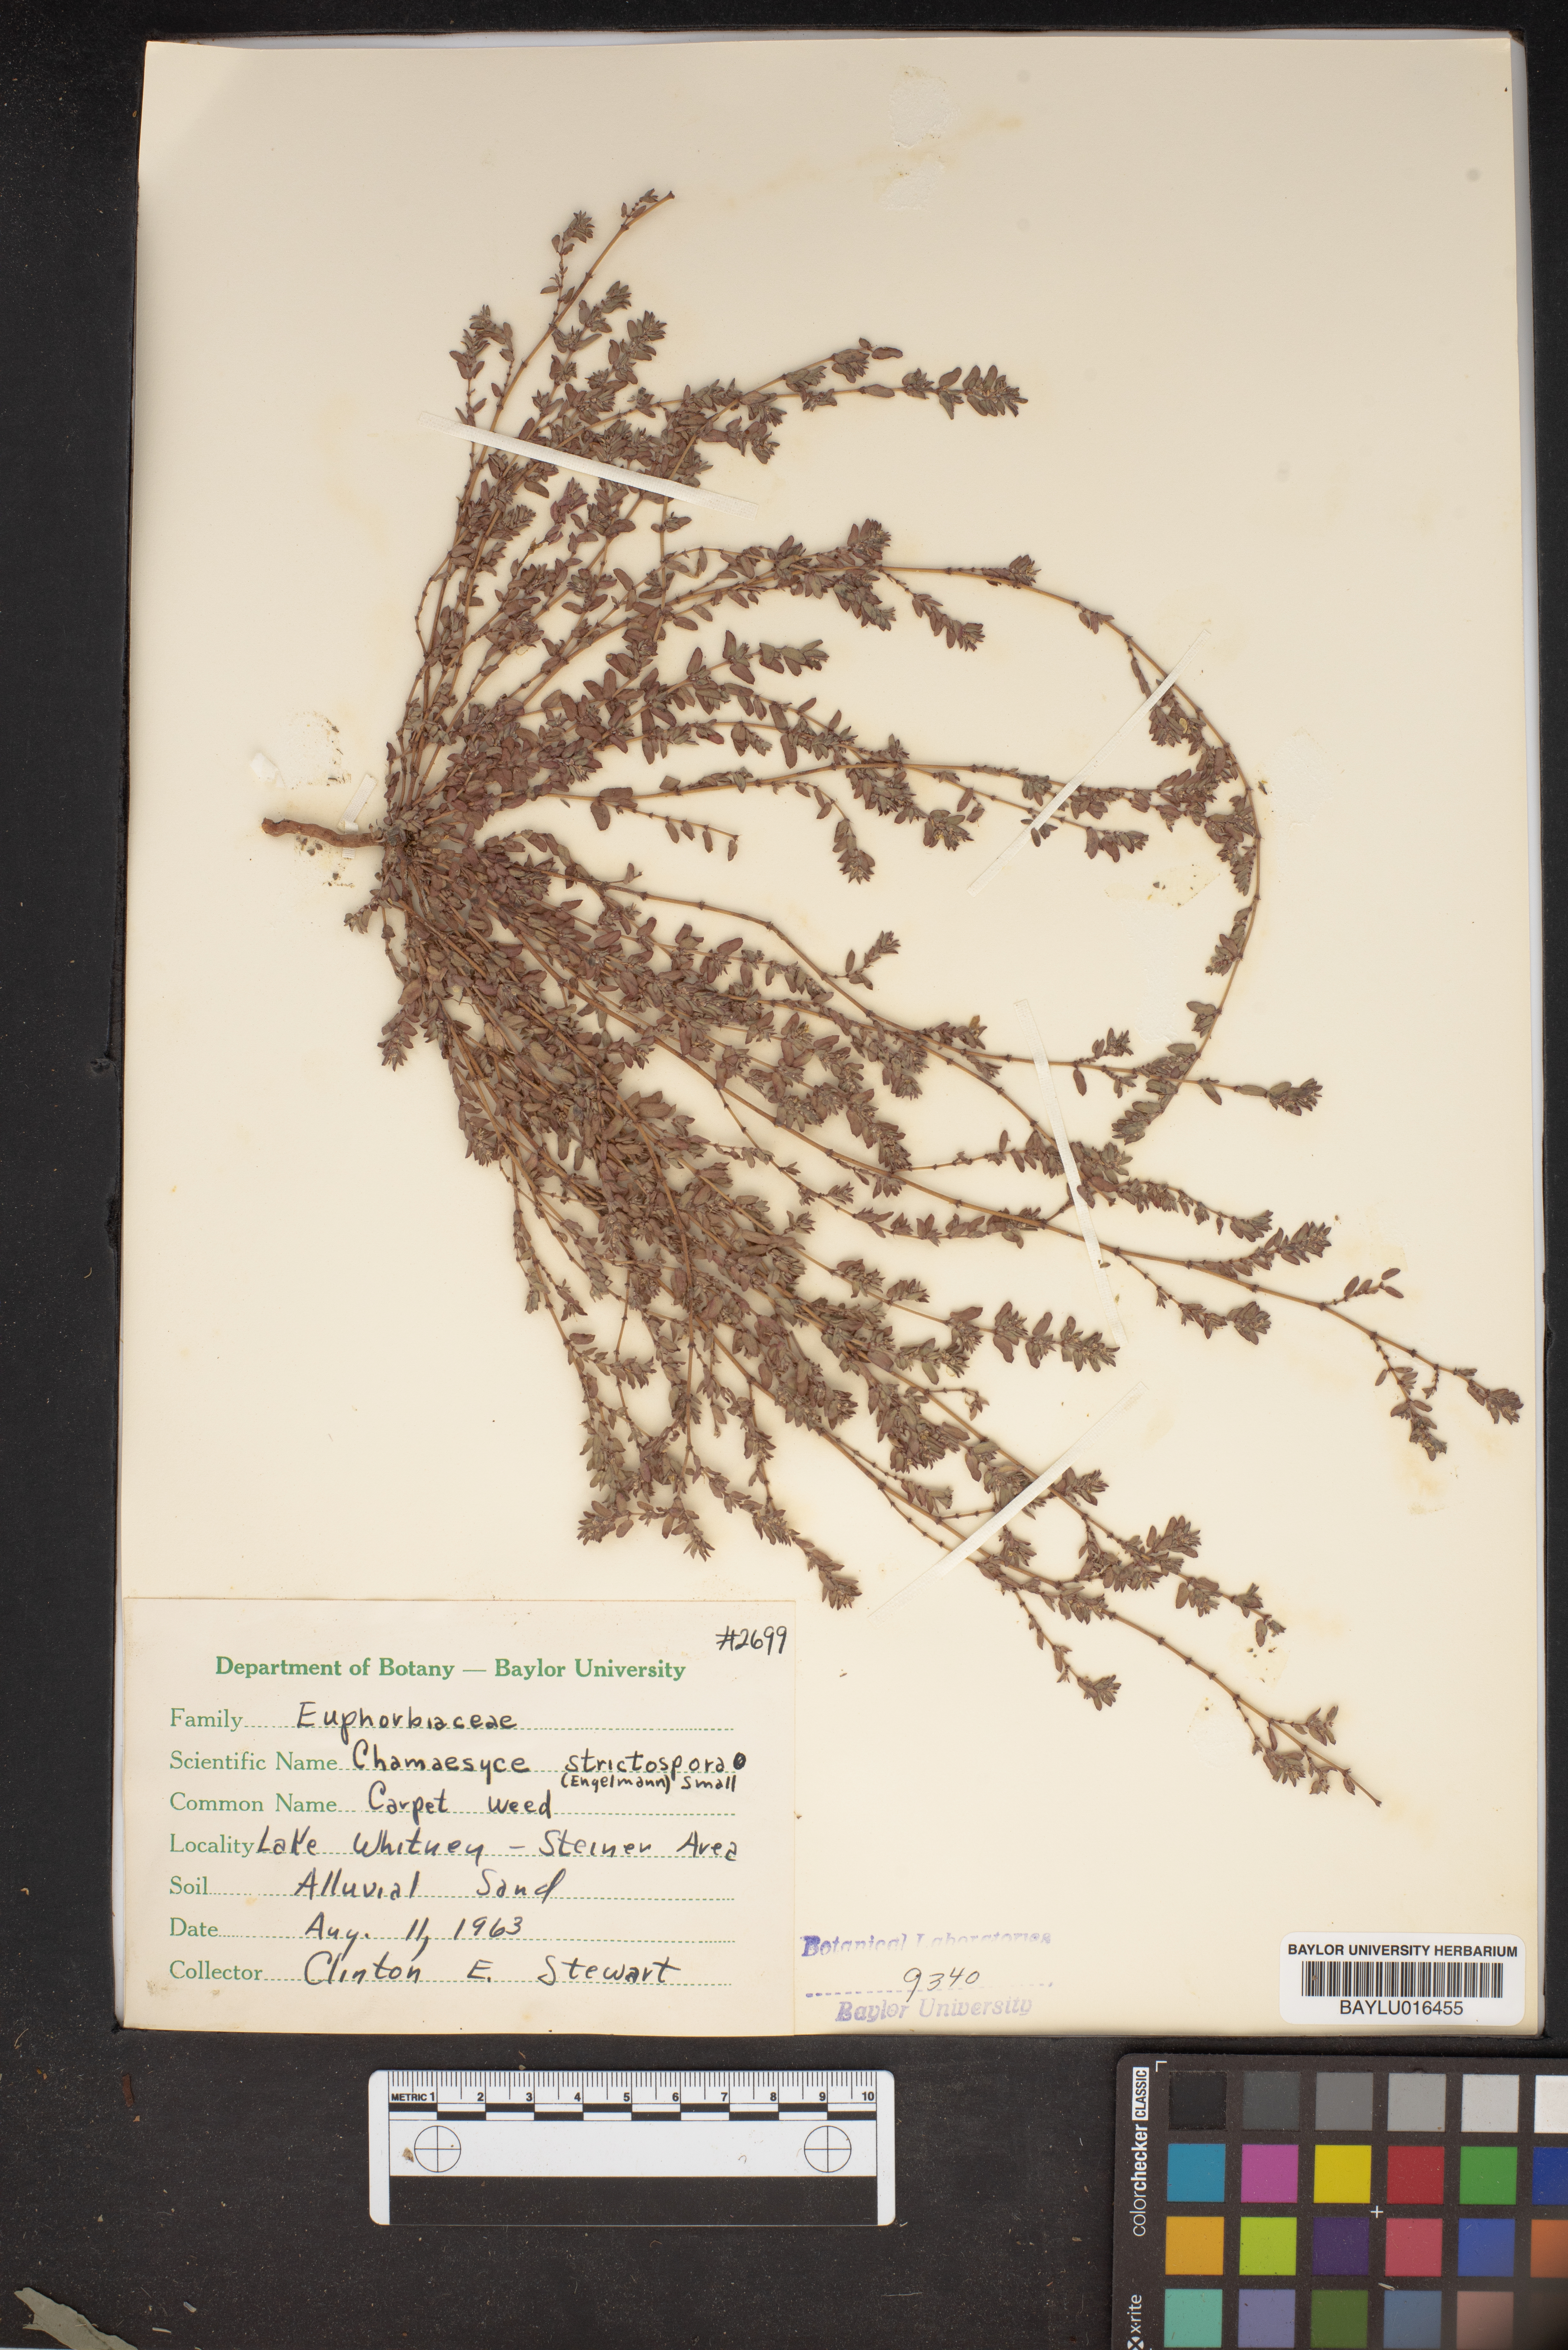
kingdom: Plantae
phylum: Tracheophyta
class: Magnoliopsida
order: Malpighiales
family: Euphorbiaceae
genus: Euphorbia
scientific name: Euphorbia stictospora
